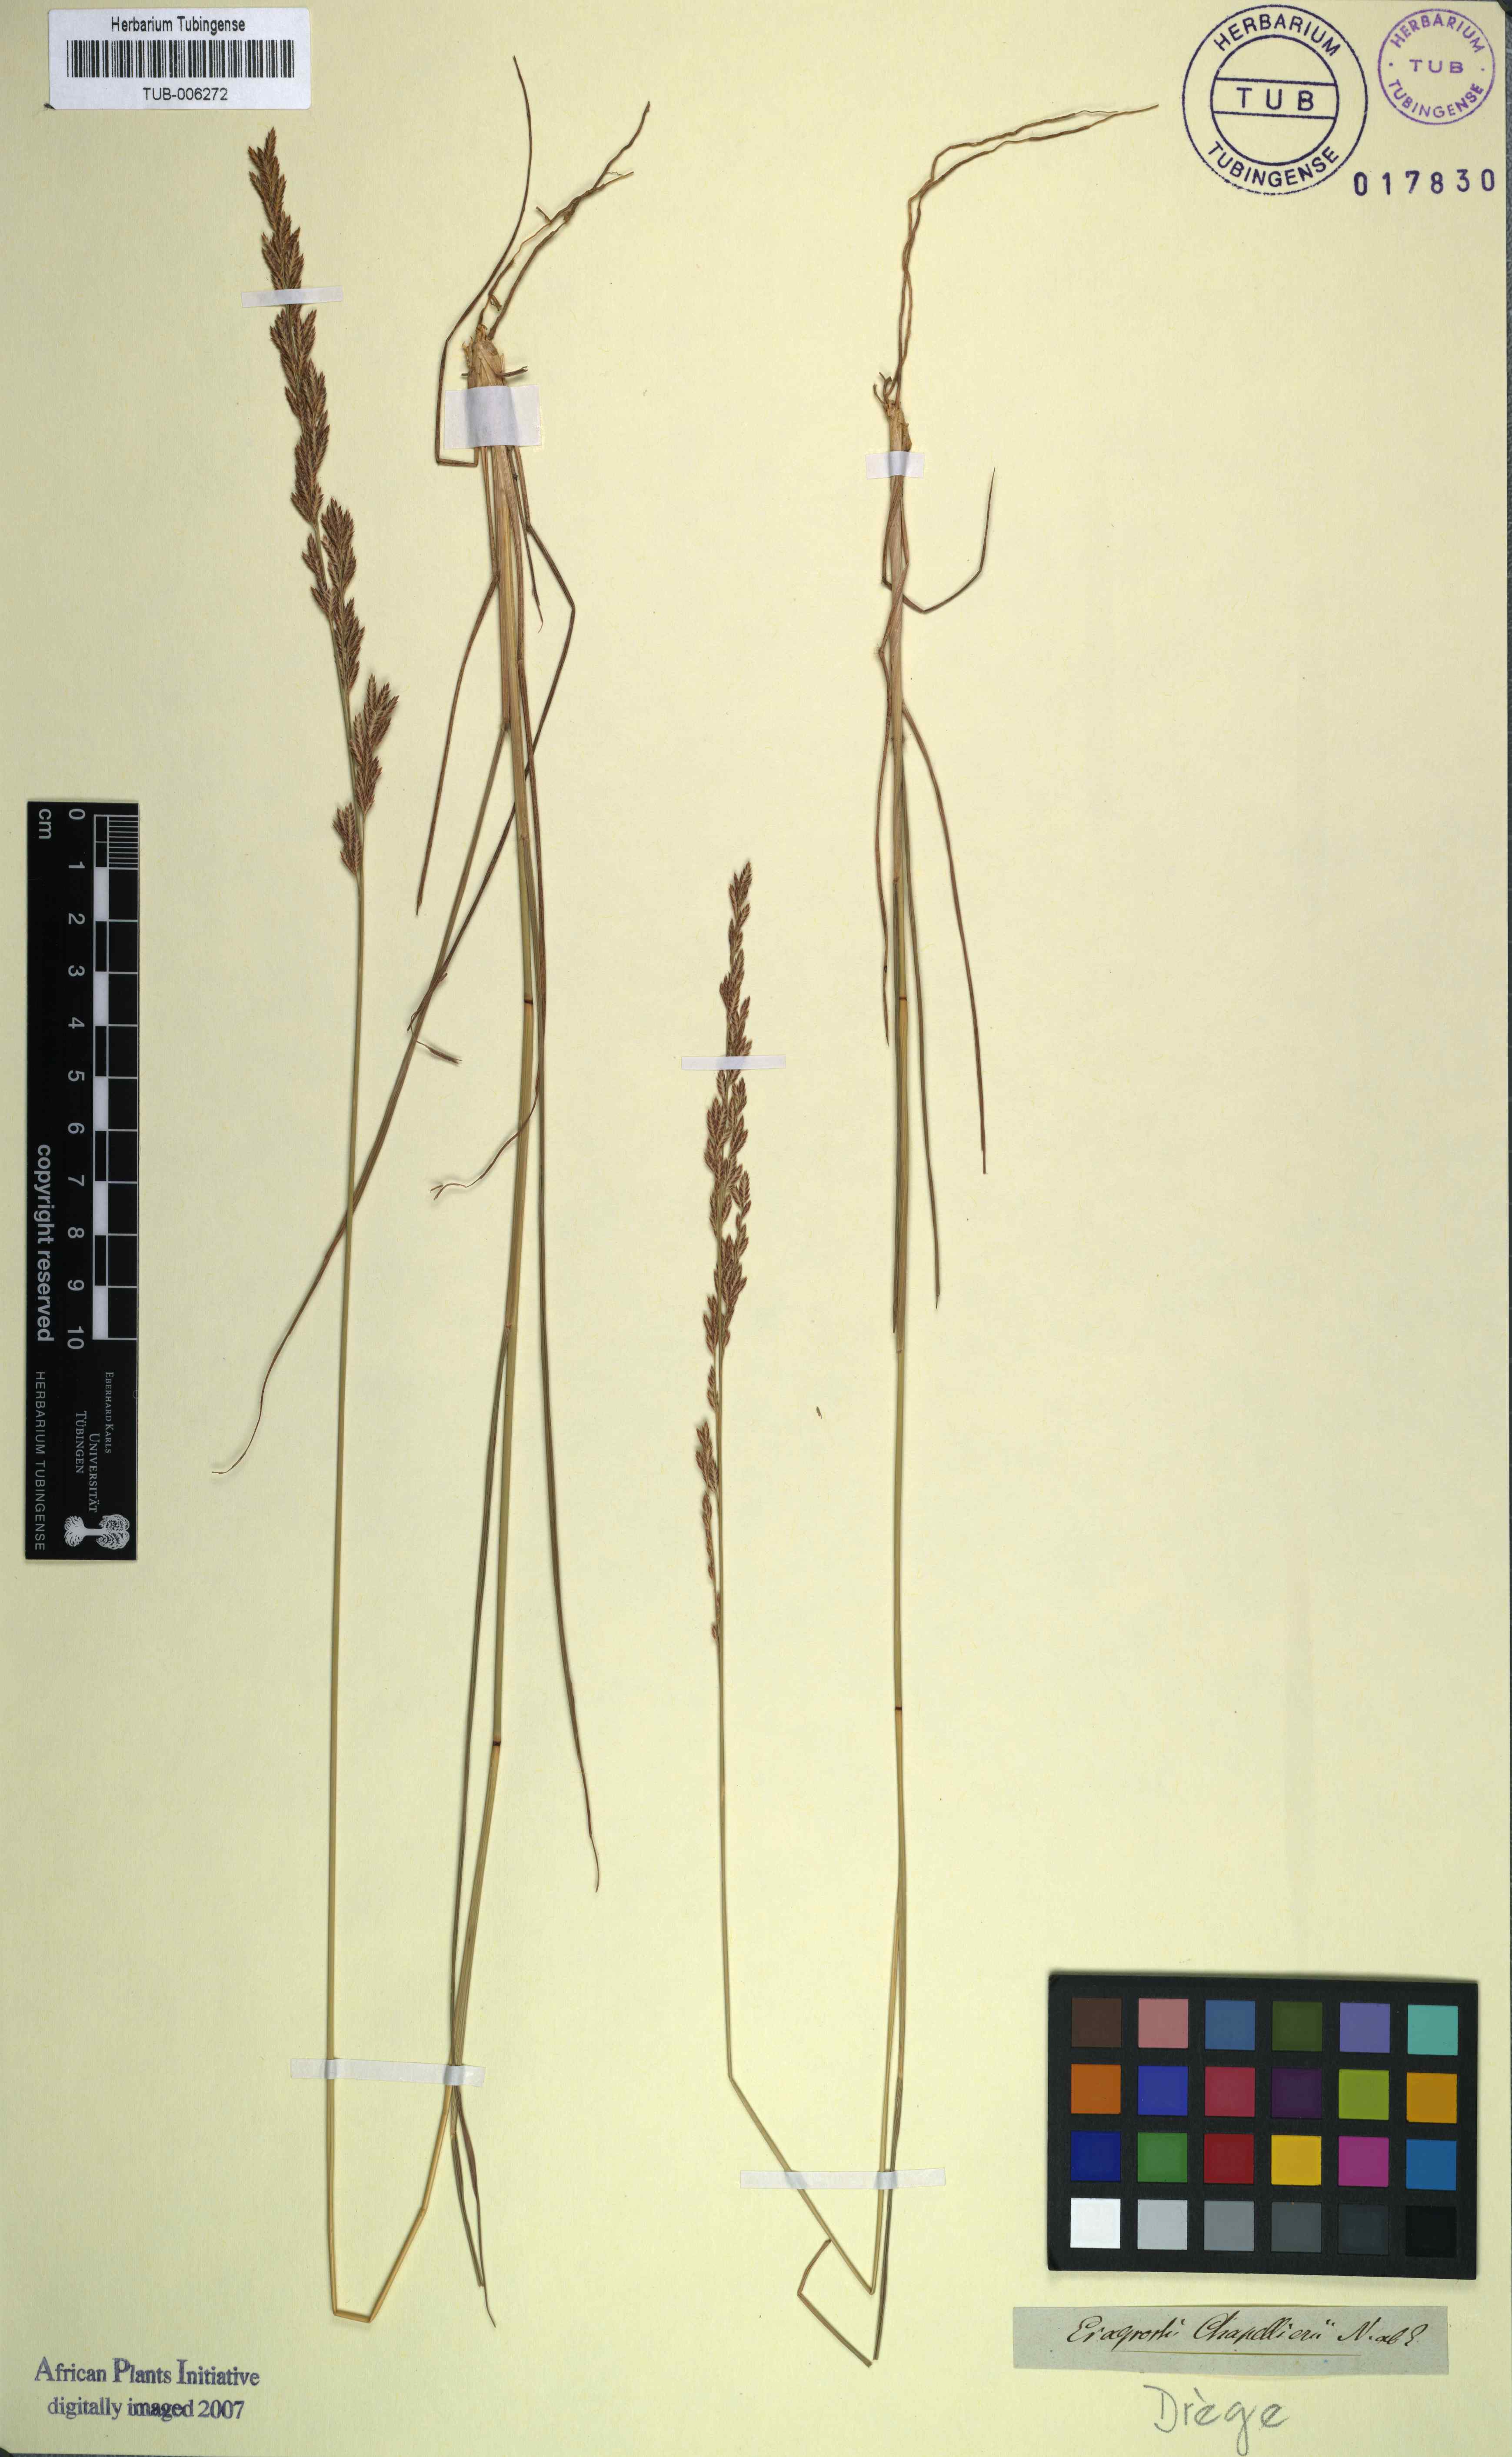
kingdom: Plantae
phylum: Tracheophyta
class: Liliopsida
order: Poales
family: Poaceae
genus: Eragrostis
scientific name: Eragrostis elongata
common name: Long lovegrass
